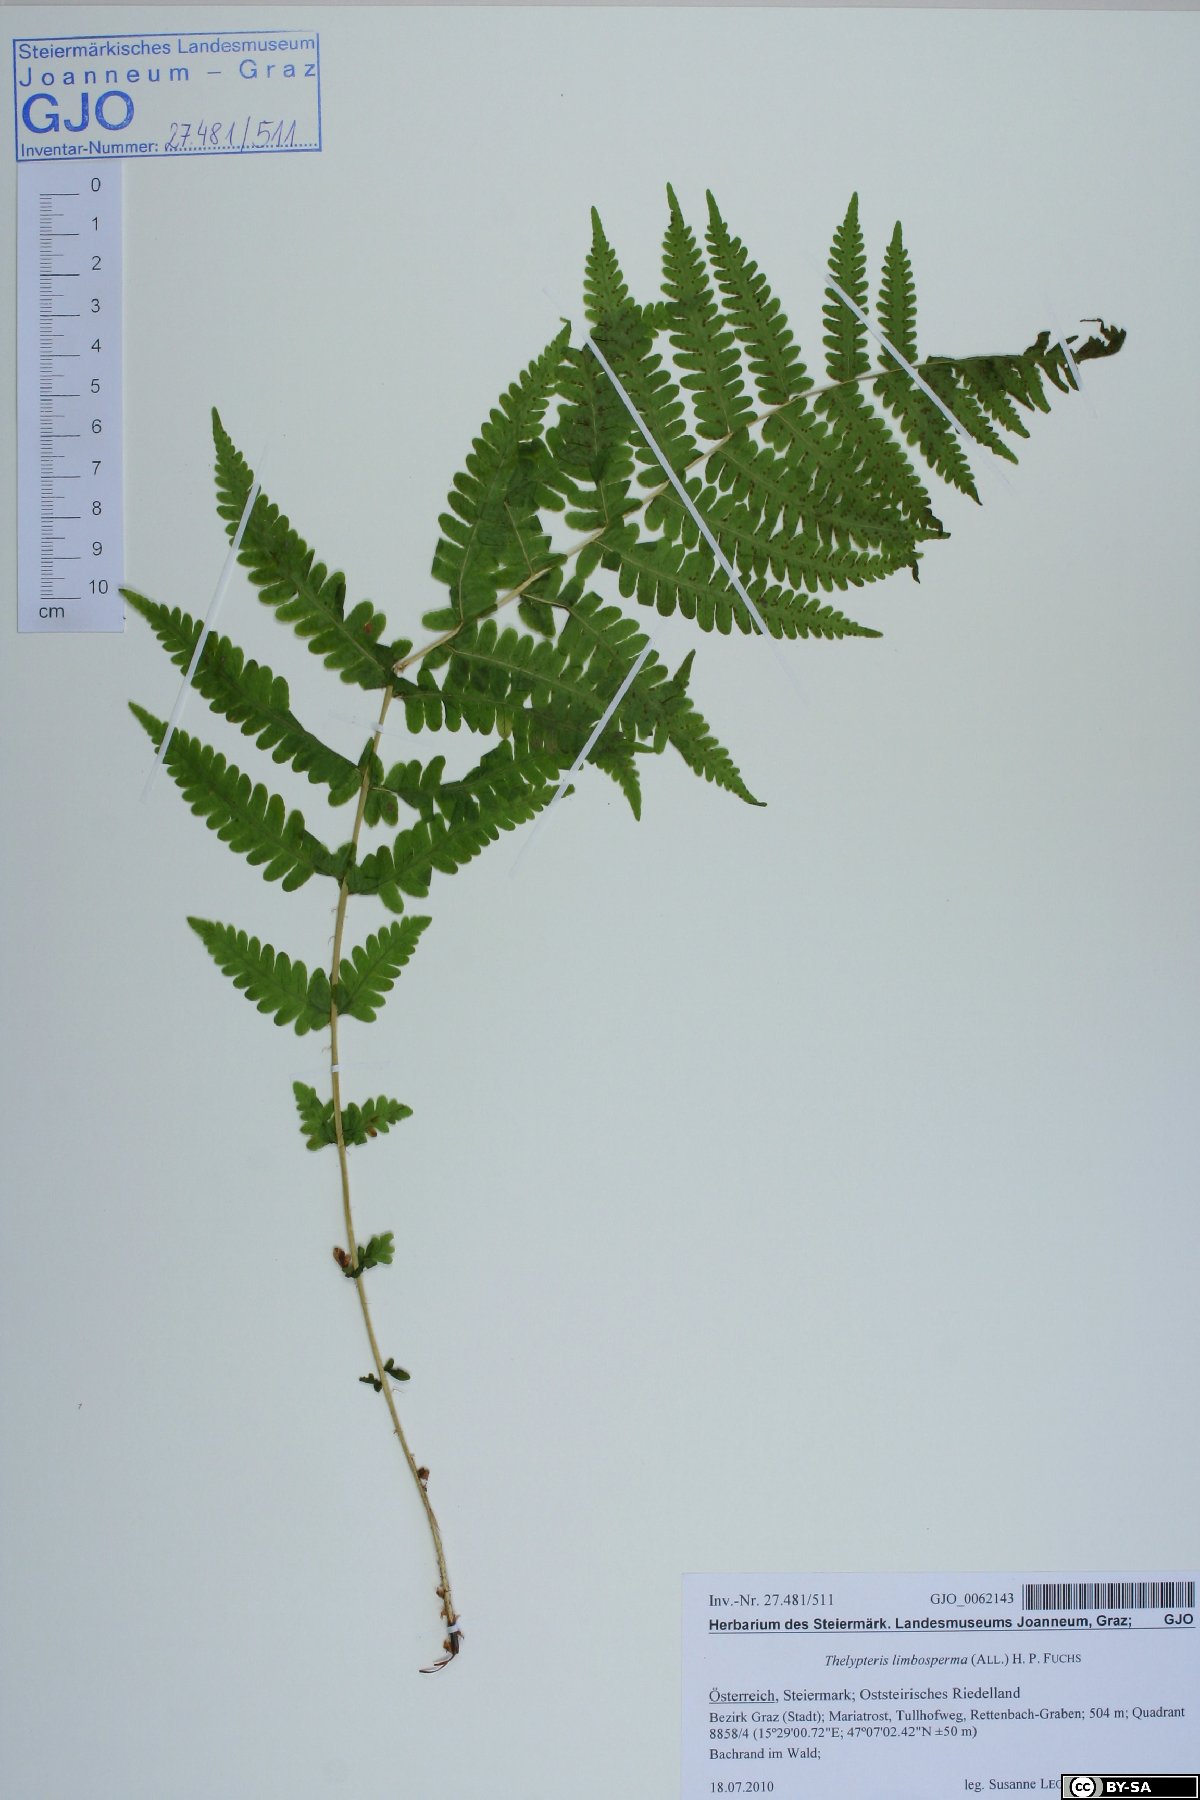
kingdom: Plantae
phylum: Tracheophyta
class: Polypodiopsida
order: Polypodiales
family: Thelypteridaceae
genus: Oreopteris
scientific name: Oreopteris limbosperma
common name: Lemon-scented fern
